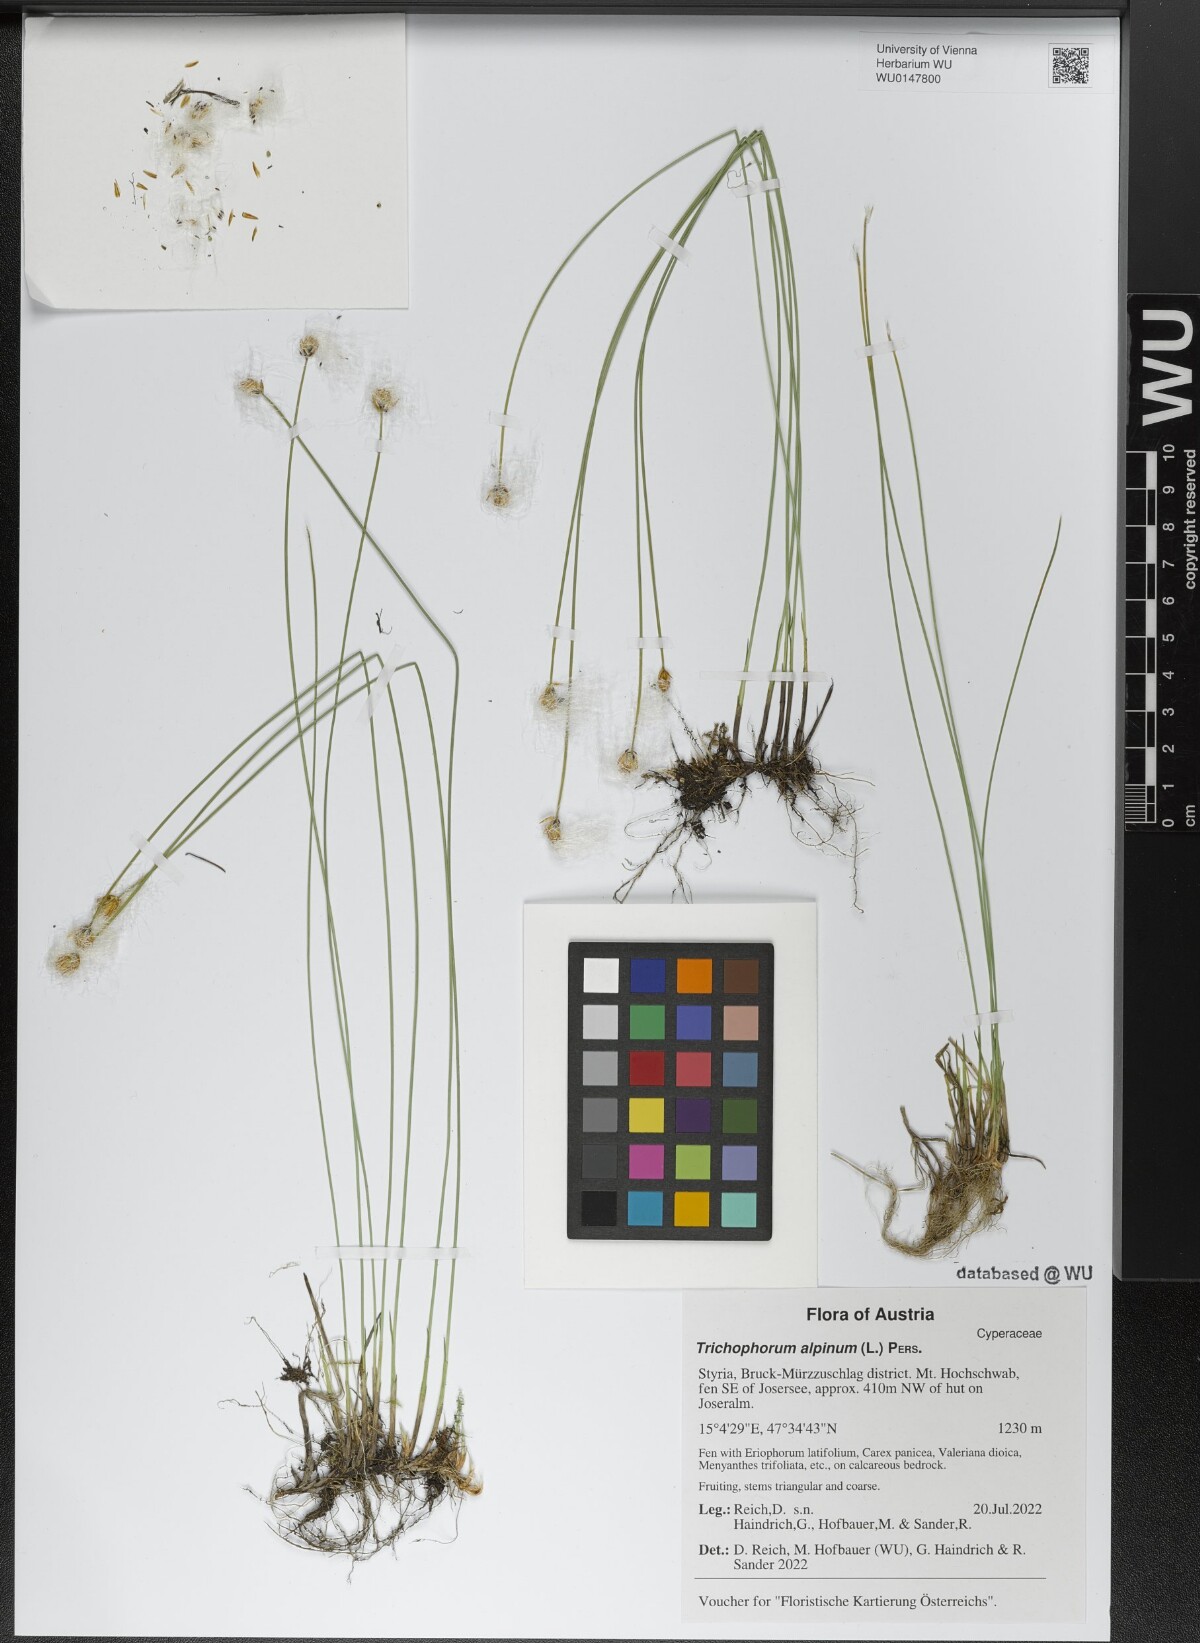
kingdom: Plantae
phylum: Tracheophyta
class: Liliopsida
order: Poales
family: Cyperaceae
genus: Trichophorum
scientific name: Trichophorum alpinum
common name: Alpine bulrush
